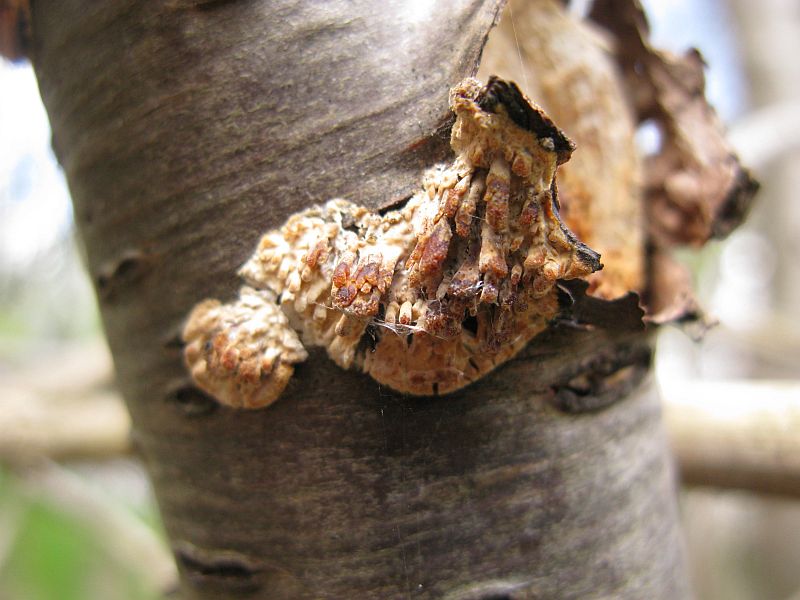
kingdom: Fungi
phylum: Basidiomycota
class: Agaricomycetes
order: Hymenochaetales
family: Schizoporaceae
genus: Xylodon
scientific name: Xylodon radula
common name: grovtandet kalkskind
